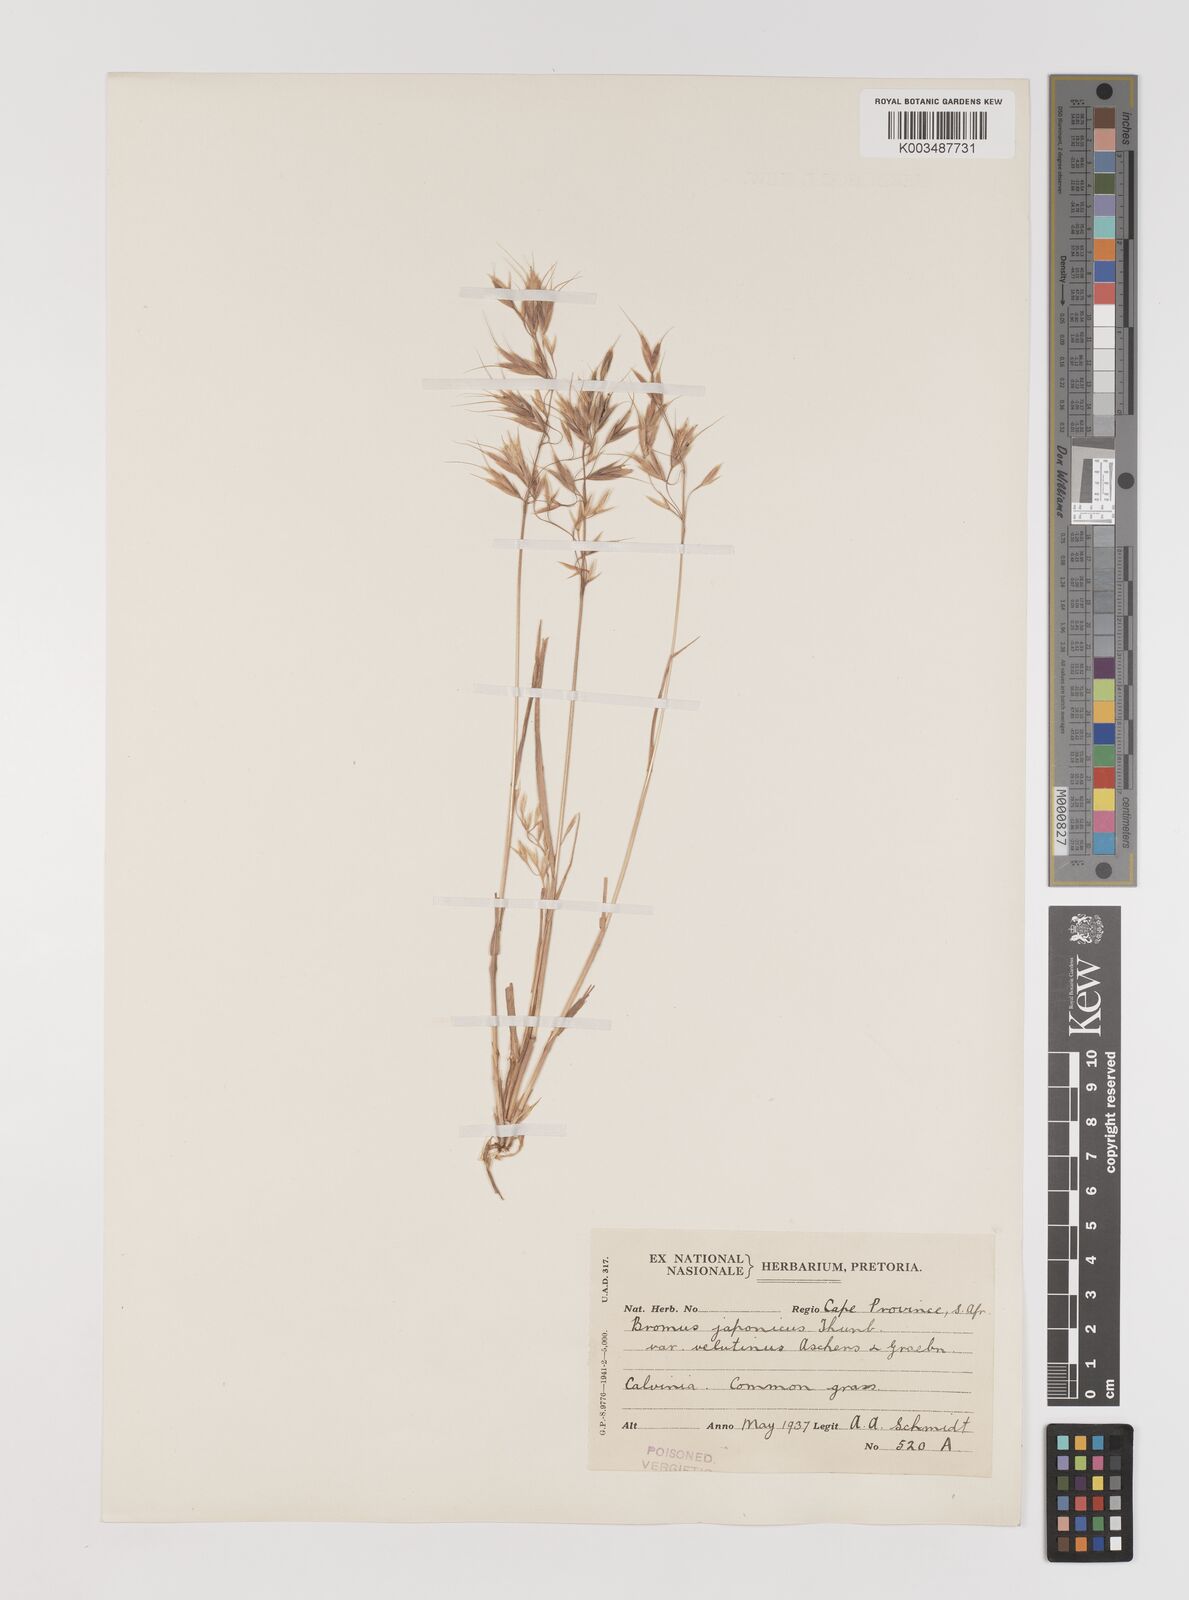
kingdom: Plantae
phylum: Tracheophyta
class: Liliopsida
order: Poales
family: Poaceae
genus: Bromus
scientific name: Bromus pectinatus
